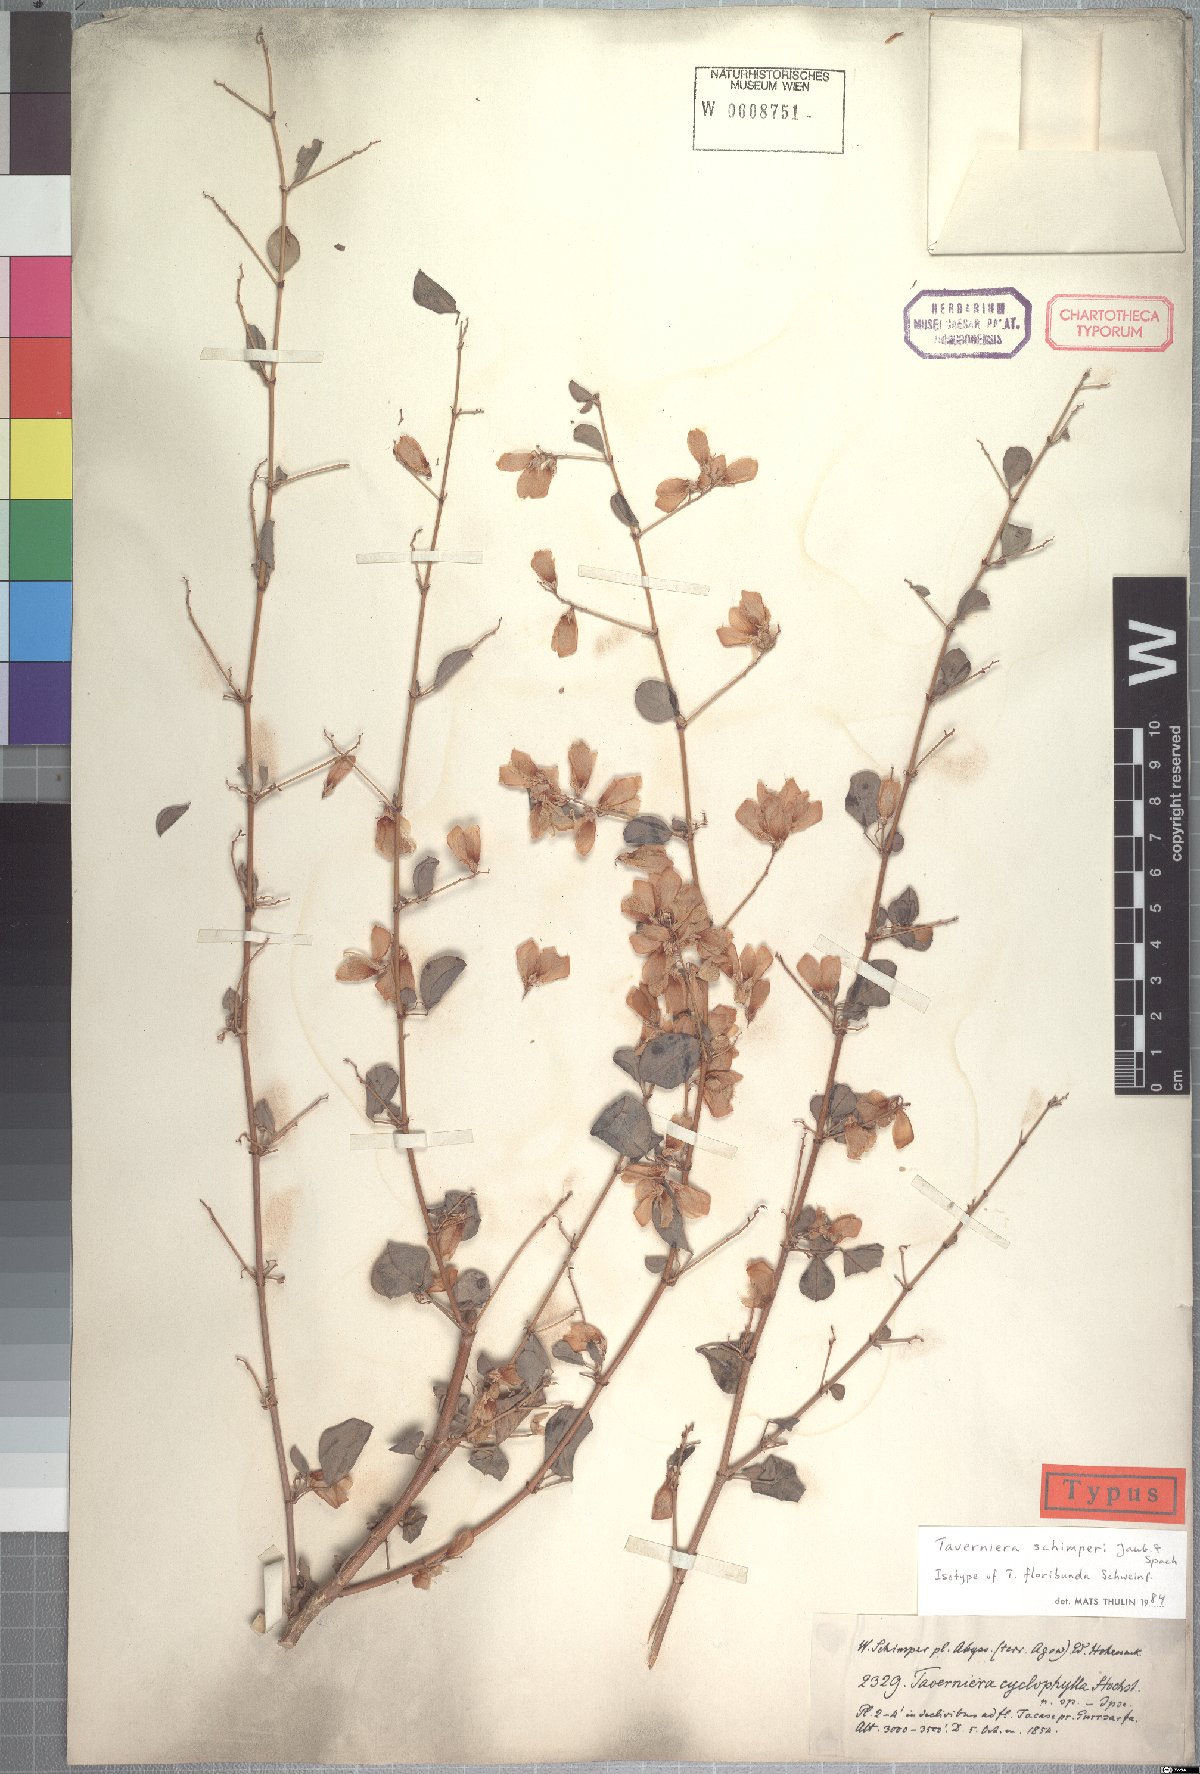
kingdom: Plantae
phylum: Tracheophyta
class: Magnoliopsida
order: Fabales
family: Fabaceae
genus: Taverniera
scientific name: Taverniera schimperi
